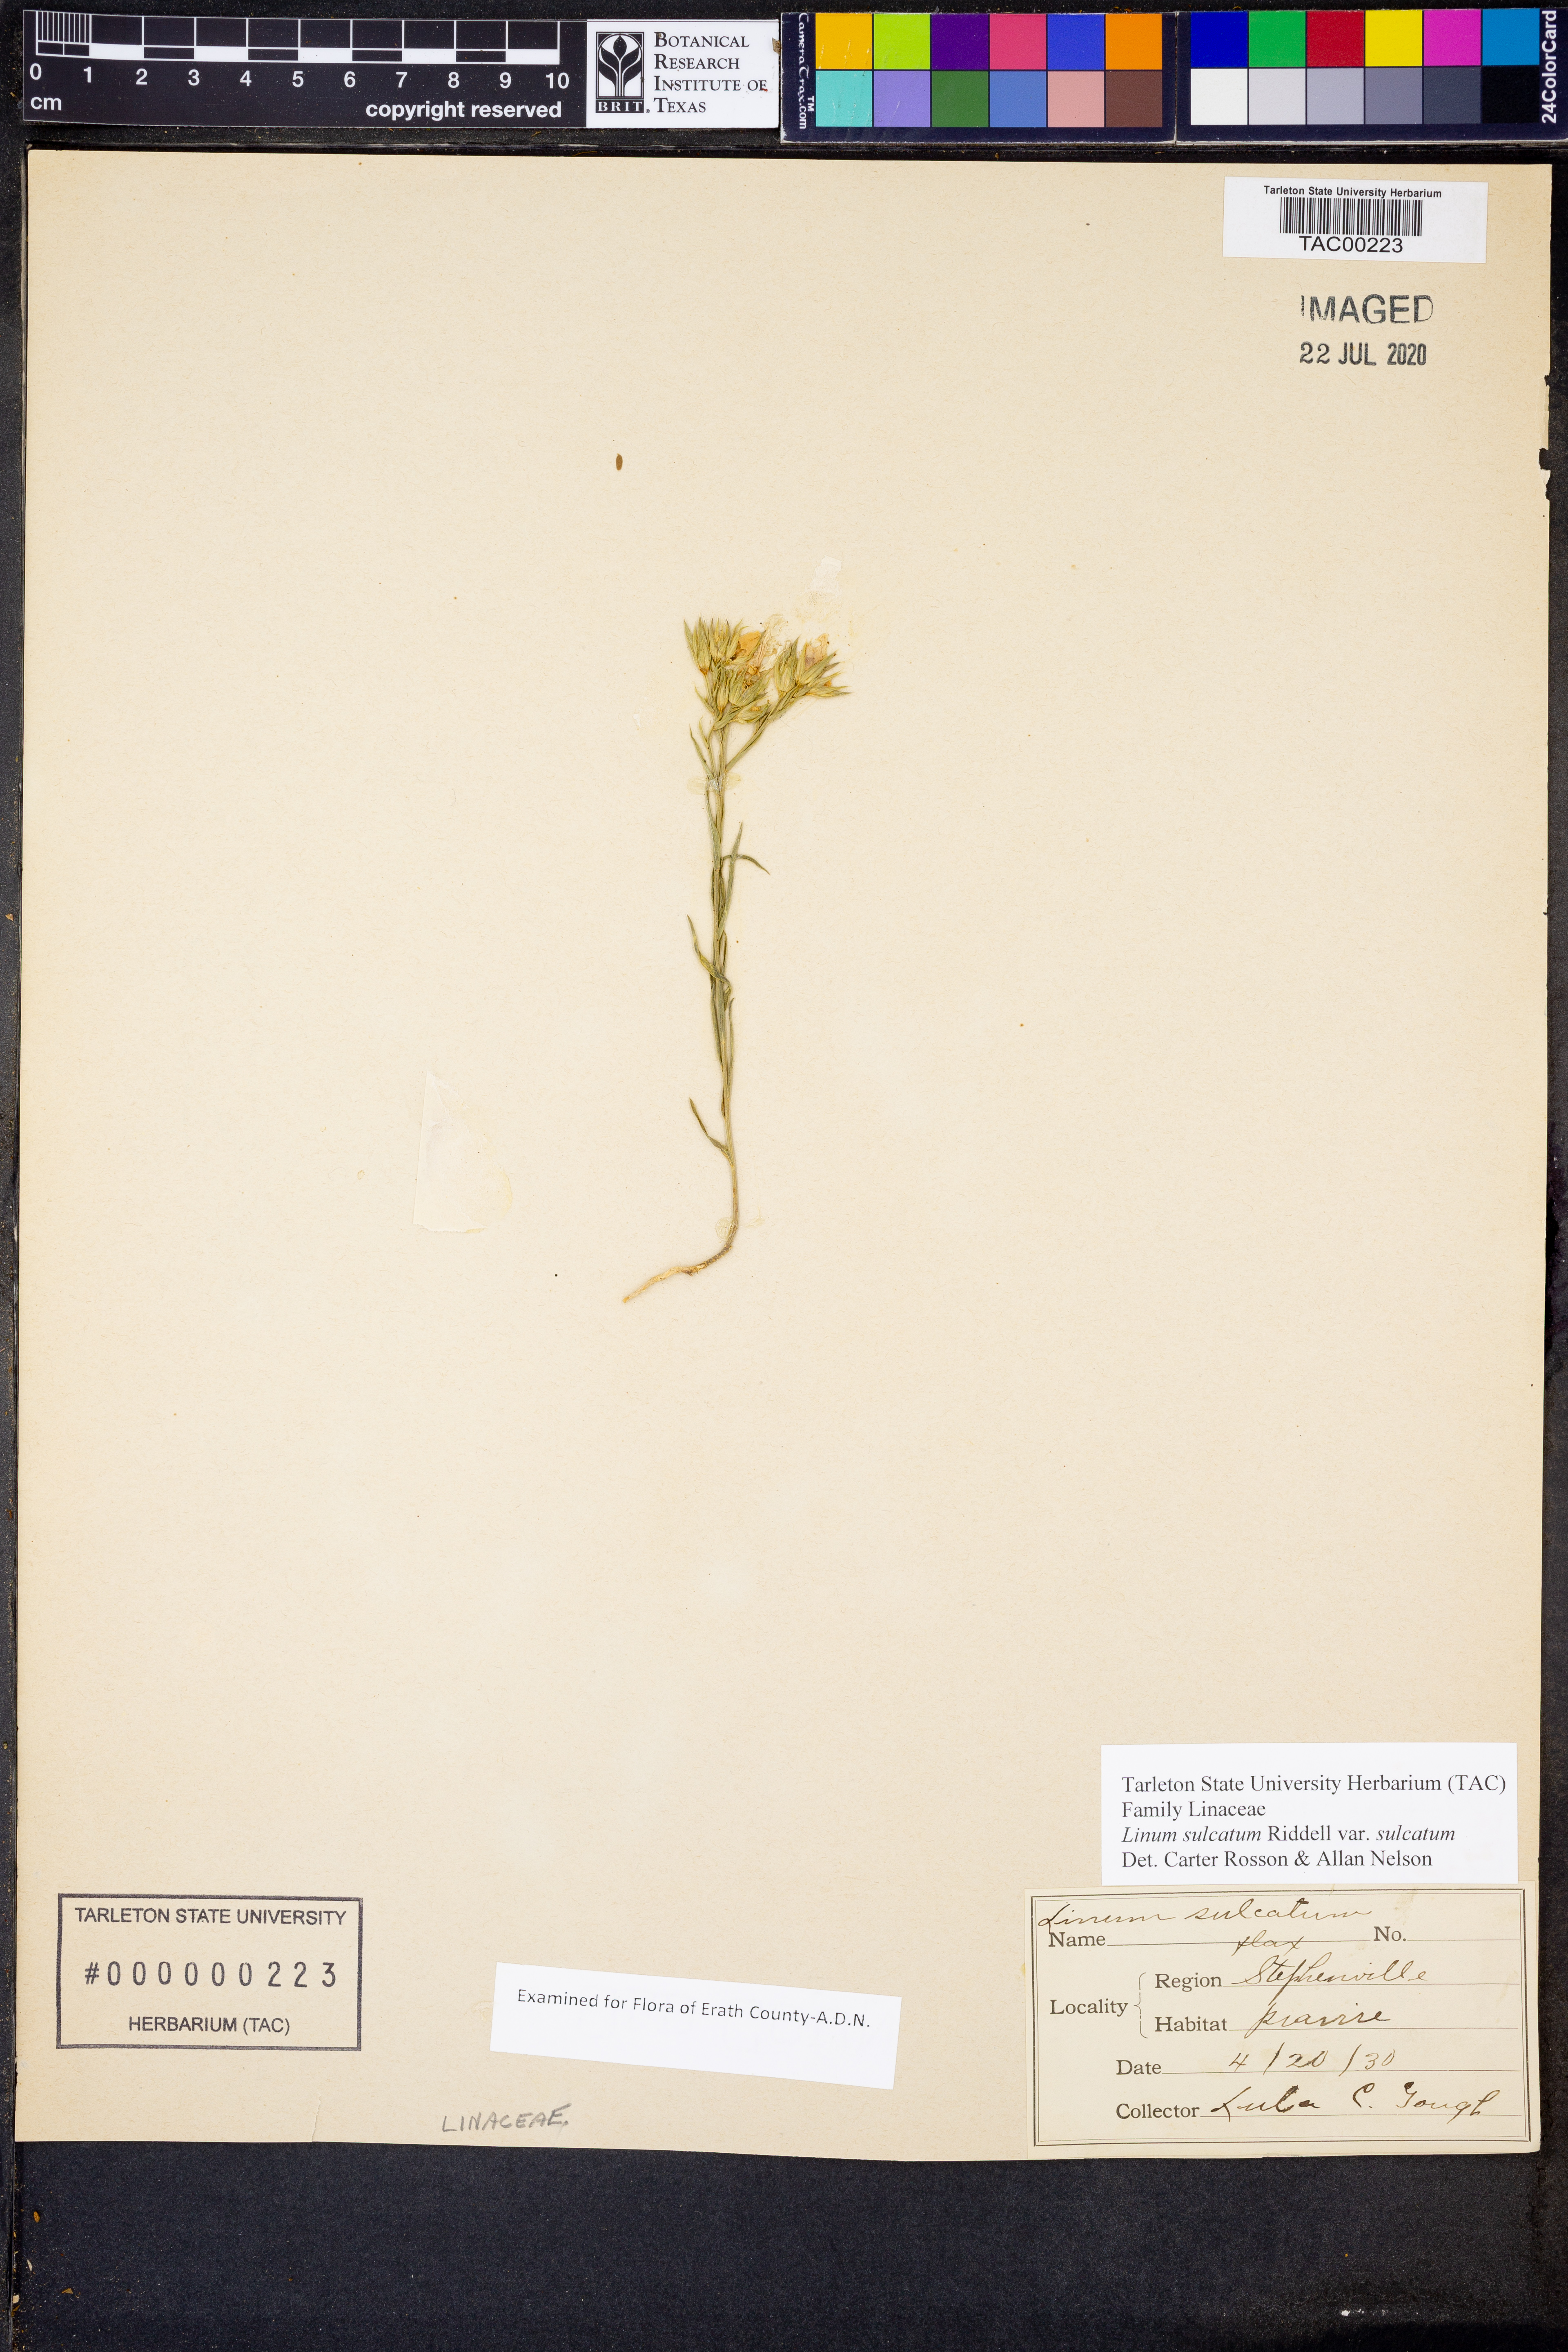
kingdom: Plantae
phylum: Tracheophyta
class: Magnoliopsida
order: Malpighiales
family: Linaceae
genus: Linum
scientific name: Linum sulcatum
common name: Grooved flax
